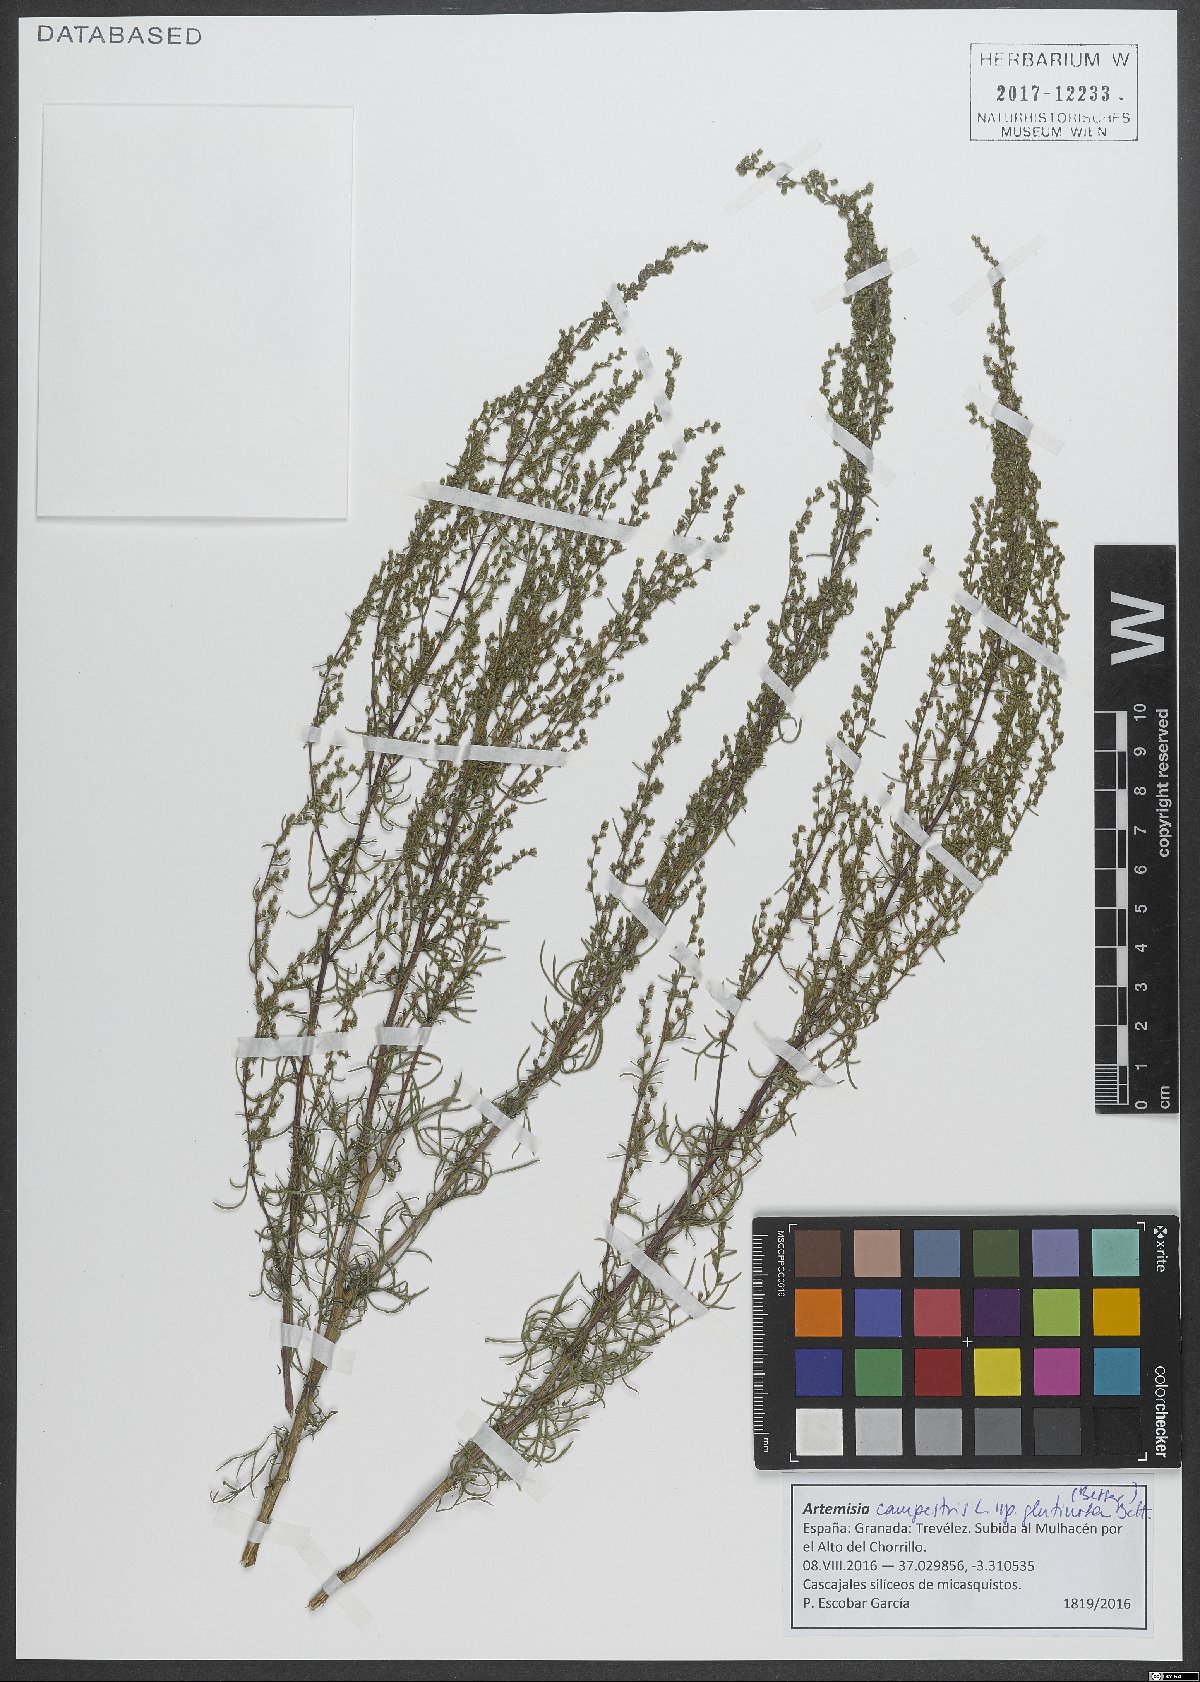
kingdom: Plantae
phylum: Tracheophyta
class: Magnoliopsida
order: Asterales
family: Asteraceae
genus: Artemisia
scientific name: Artemisia campestris
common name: Field wormwood
